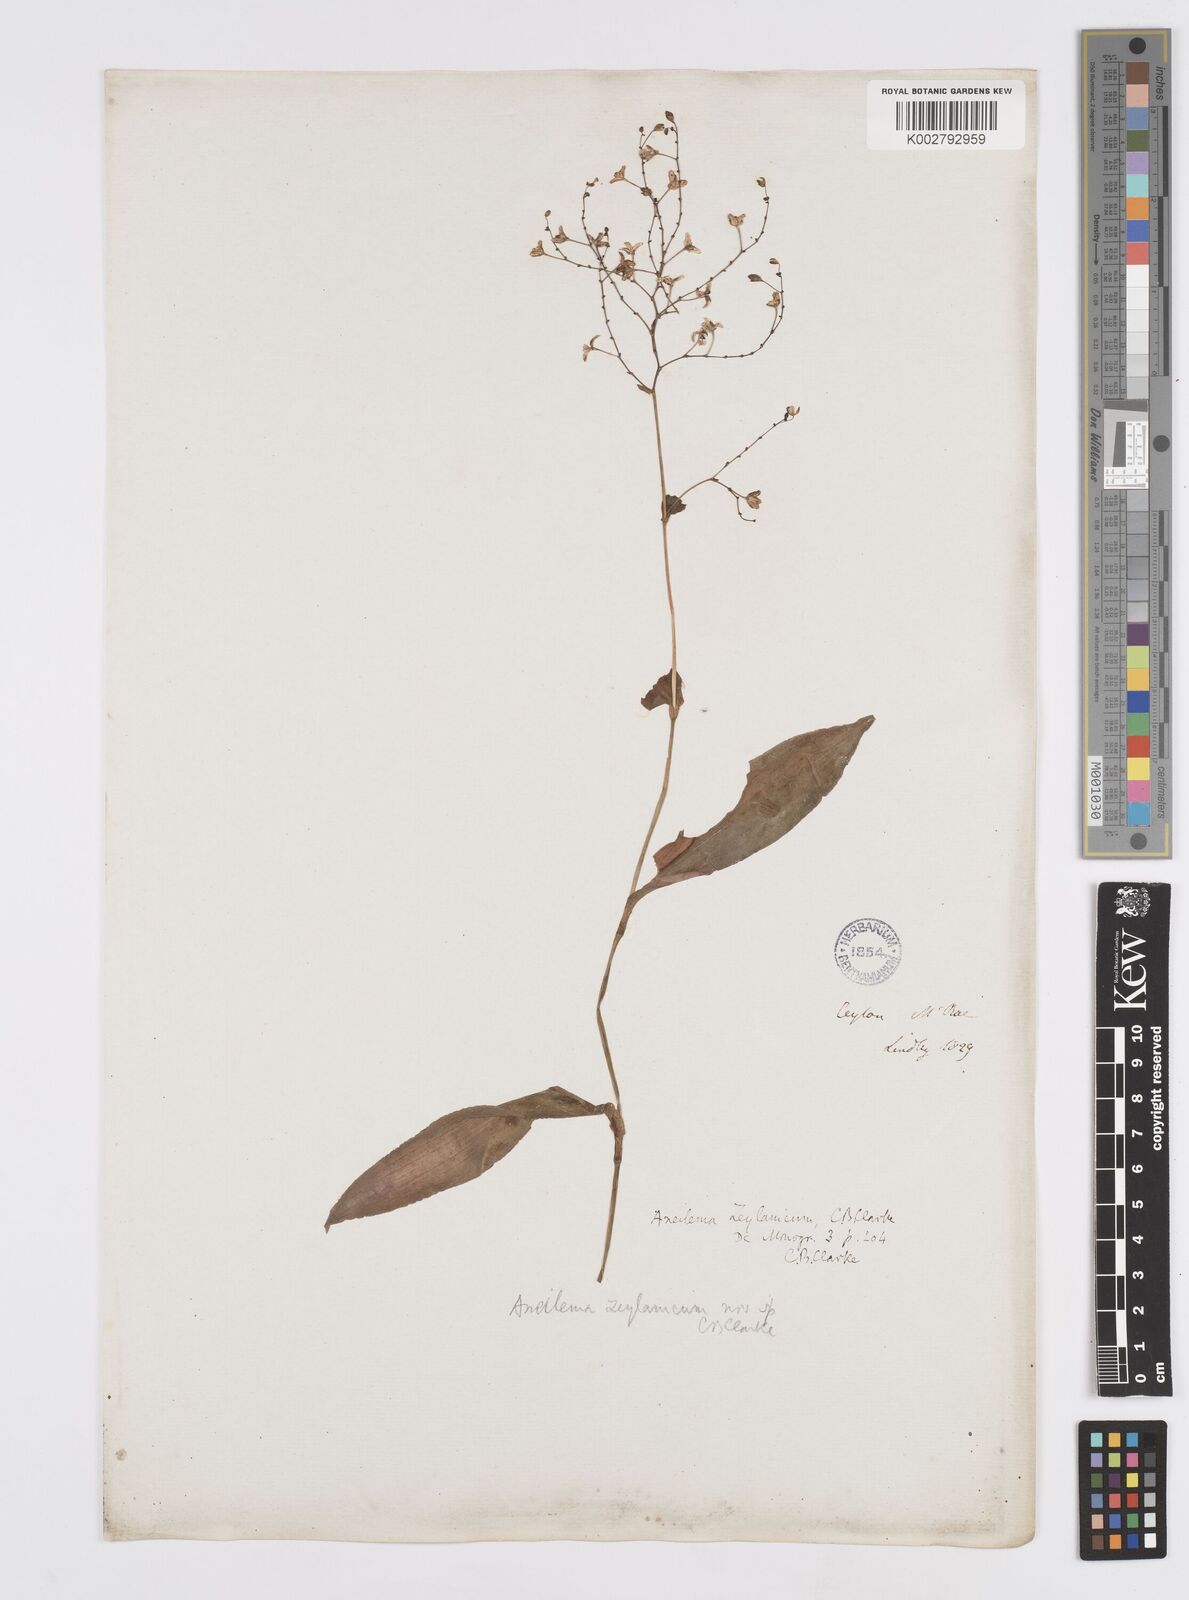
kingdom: Plantae
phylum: Tracheophyta
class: Liliopsida
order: Commelinales
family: Commelinaceae
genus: Murdannia
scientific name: Murdannia zeylanica
